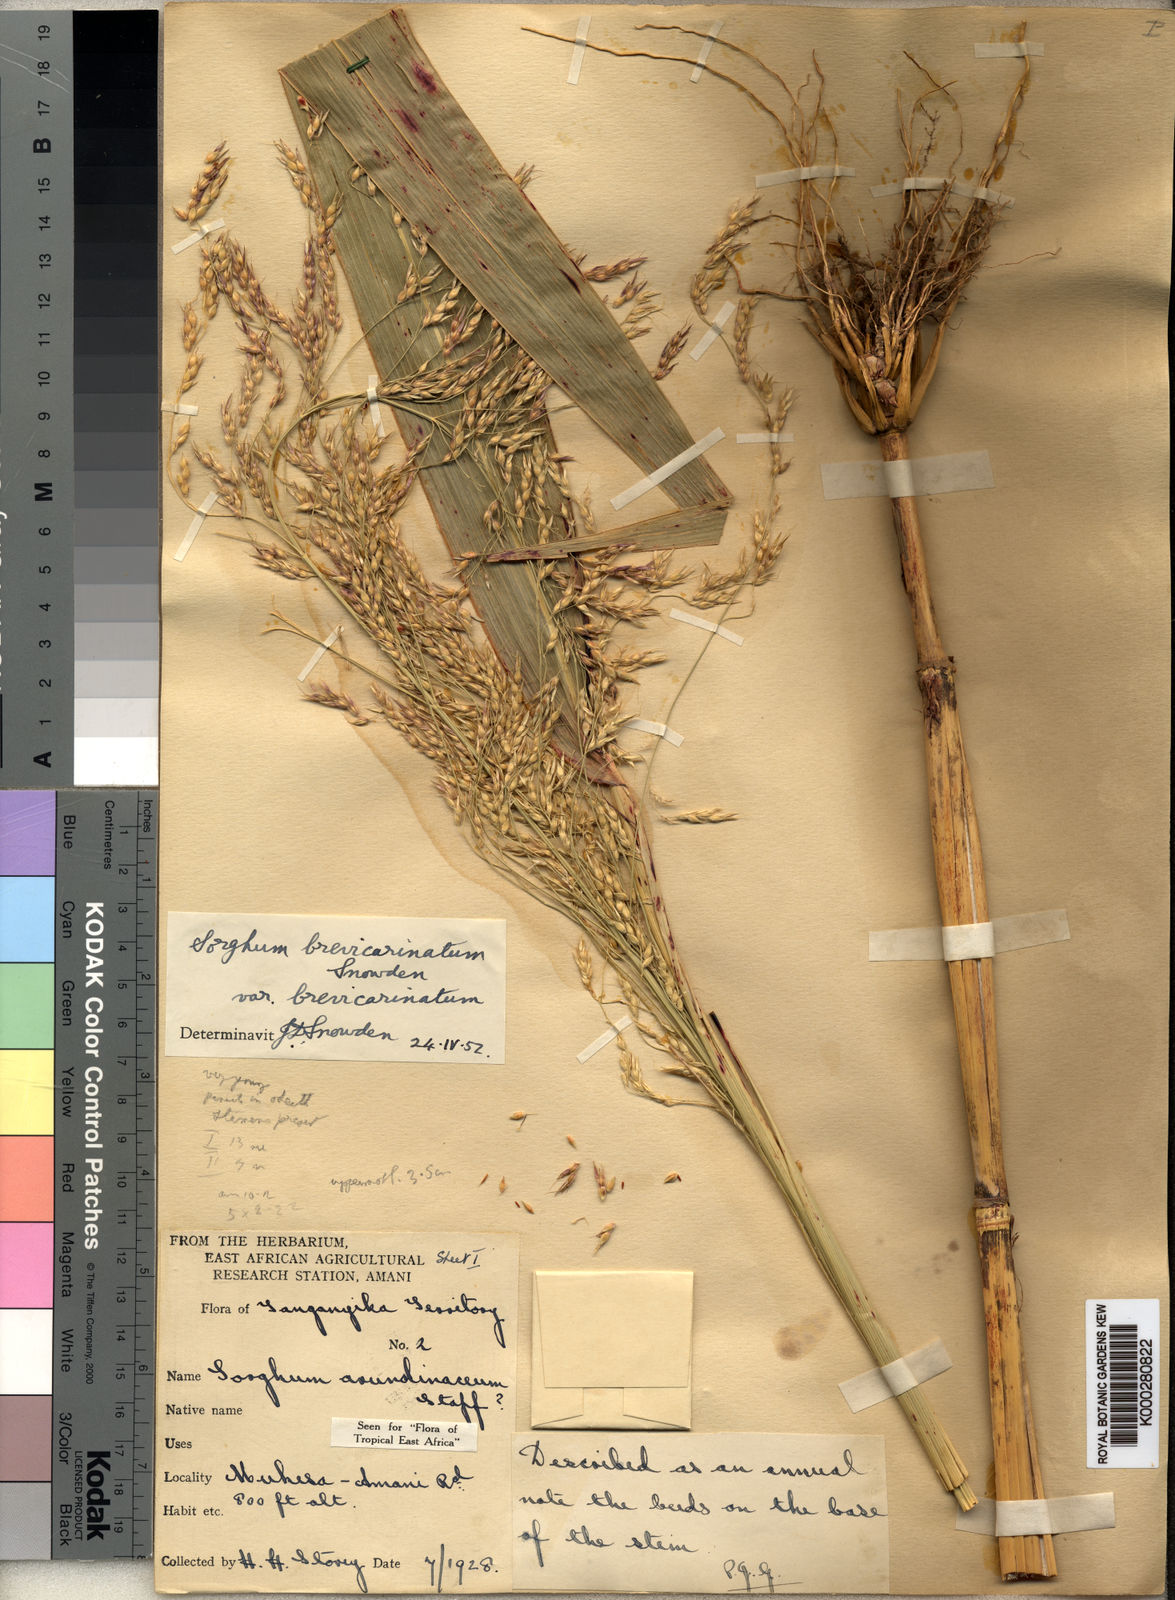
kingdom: Plantae
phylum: Tracheophyta
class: Liliopsida
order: Poales
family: Poaceae
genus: Sorghum
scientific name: Sorghum arundinaceum
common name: Sorghum
